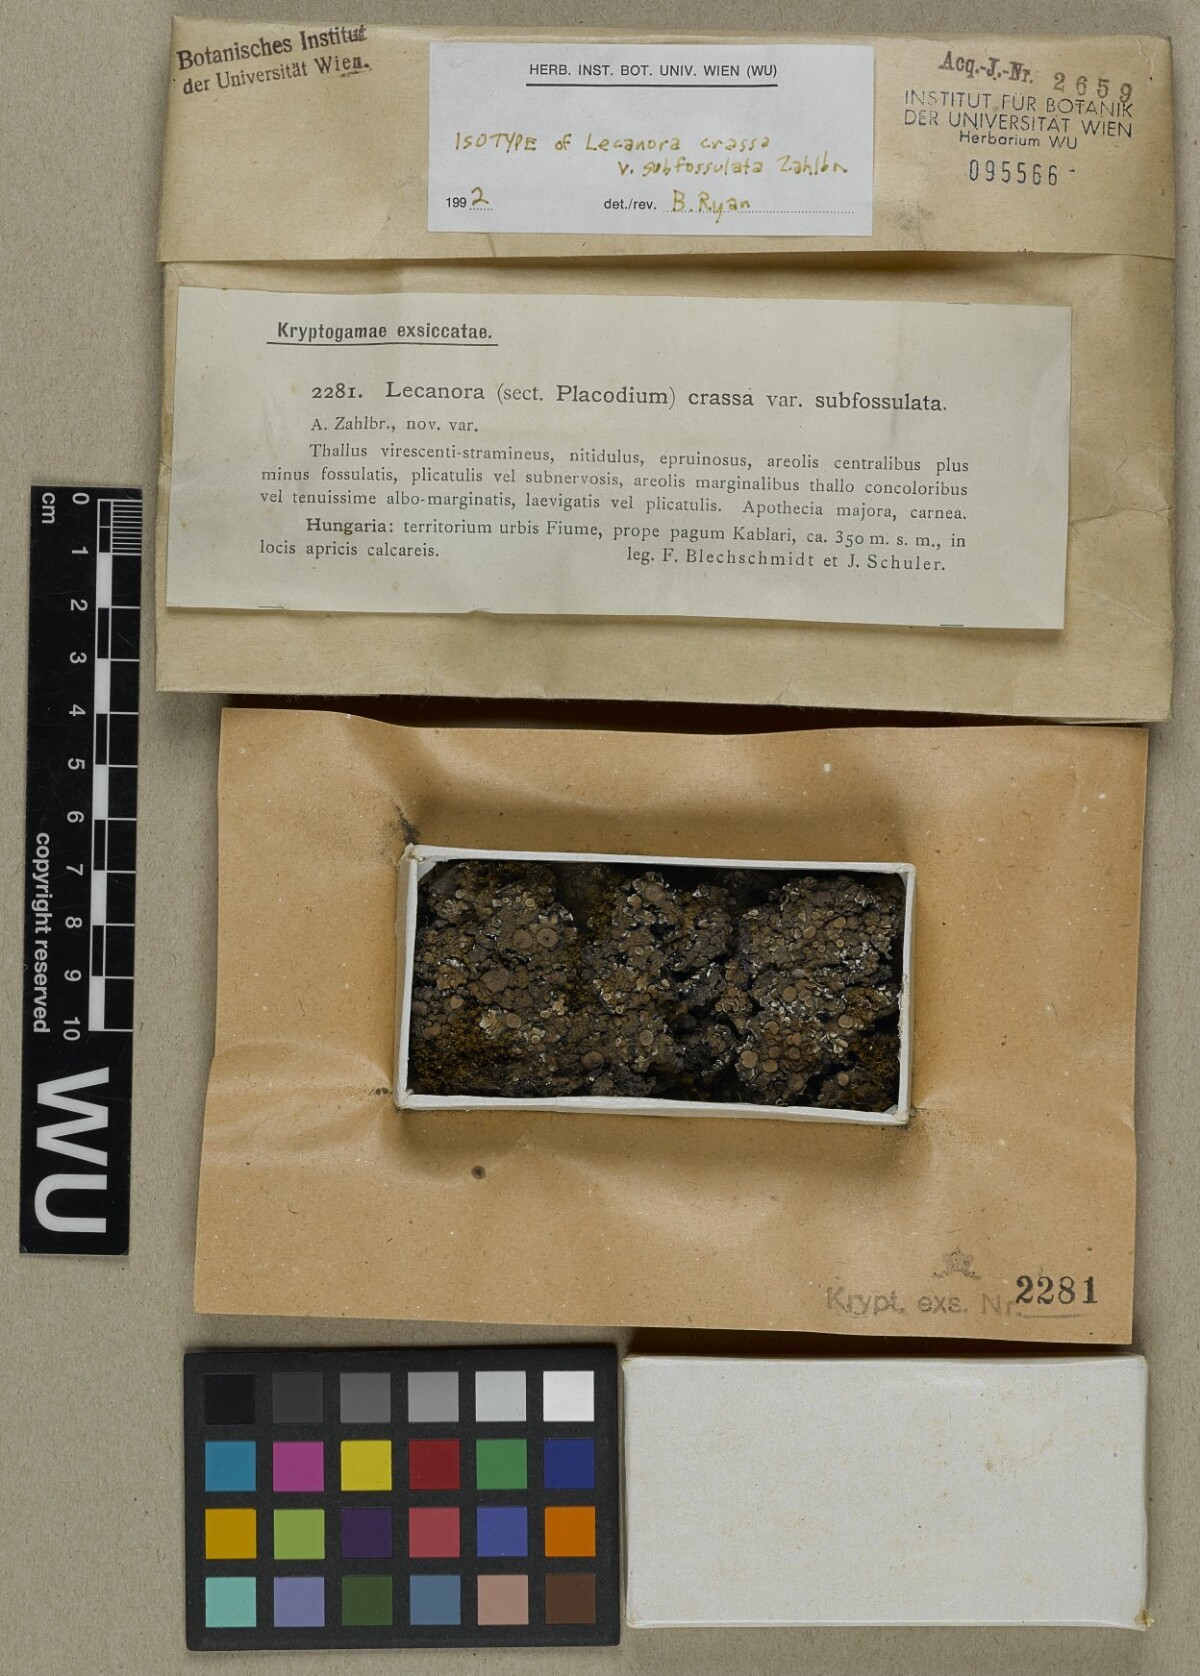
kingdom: Fungi
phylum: Ascomycota
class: Lecanoromycetes
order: Lecanorales
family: Lecanoraceae
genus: Lecanora
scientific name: Lecanora chlarotera
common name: Brown rim-lichen
